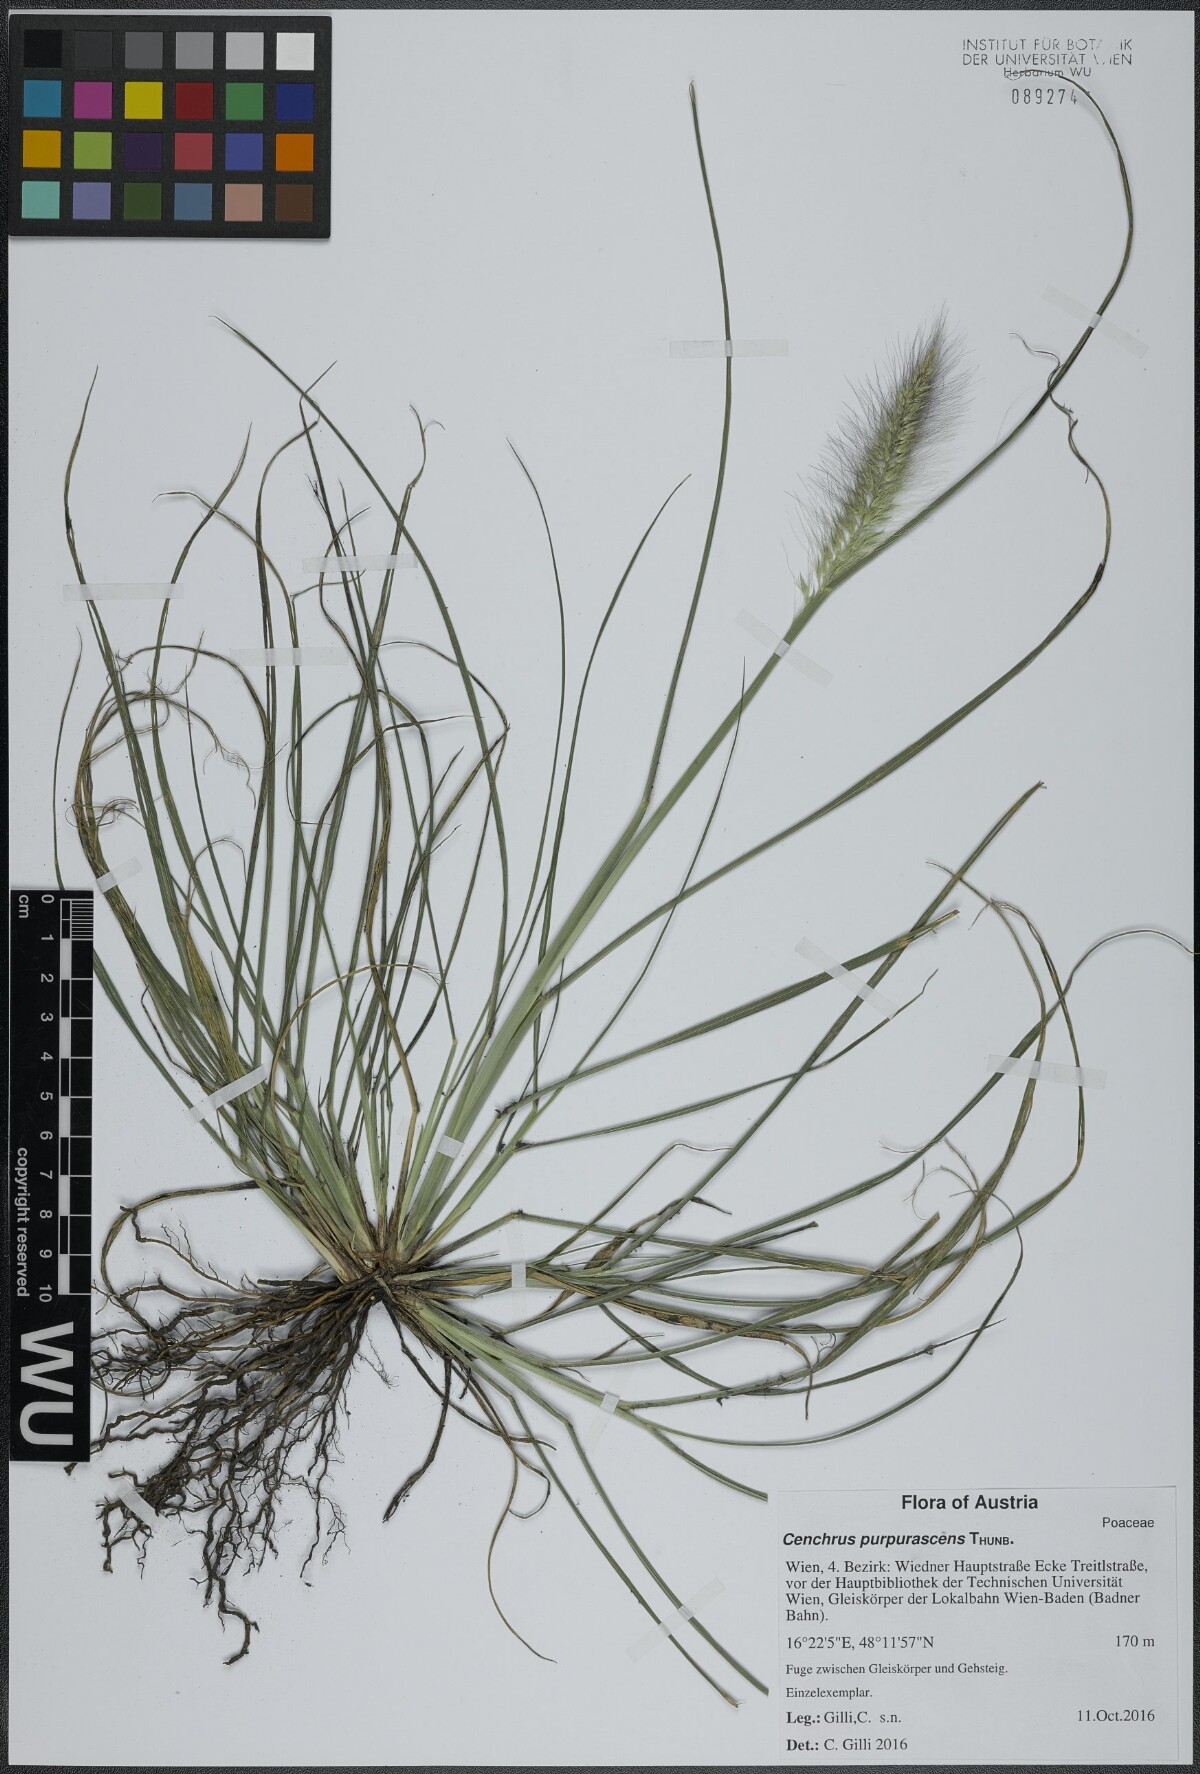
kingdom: Plantae
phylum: Tracheophyta
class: Liliopsida
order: Poales
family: Poaceae
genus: Cenchrus
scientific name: Cenchrus alopecuroides
